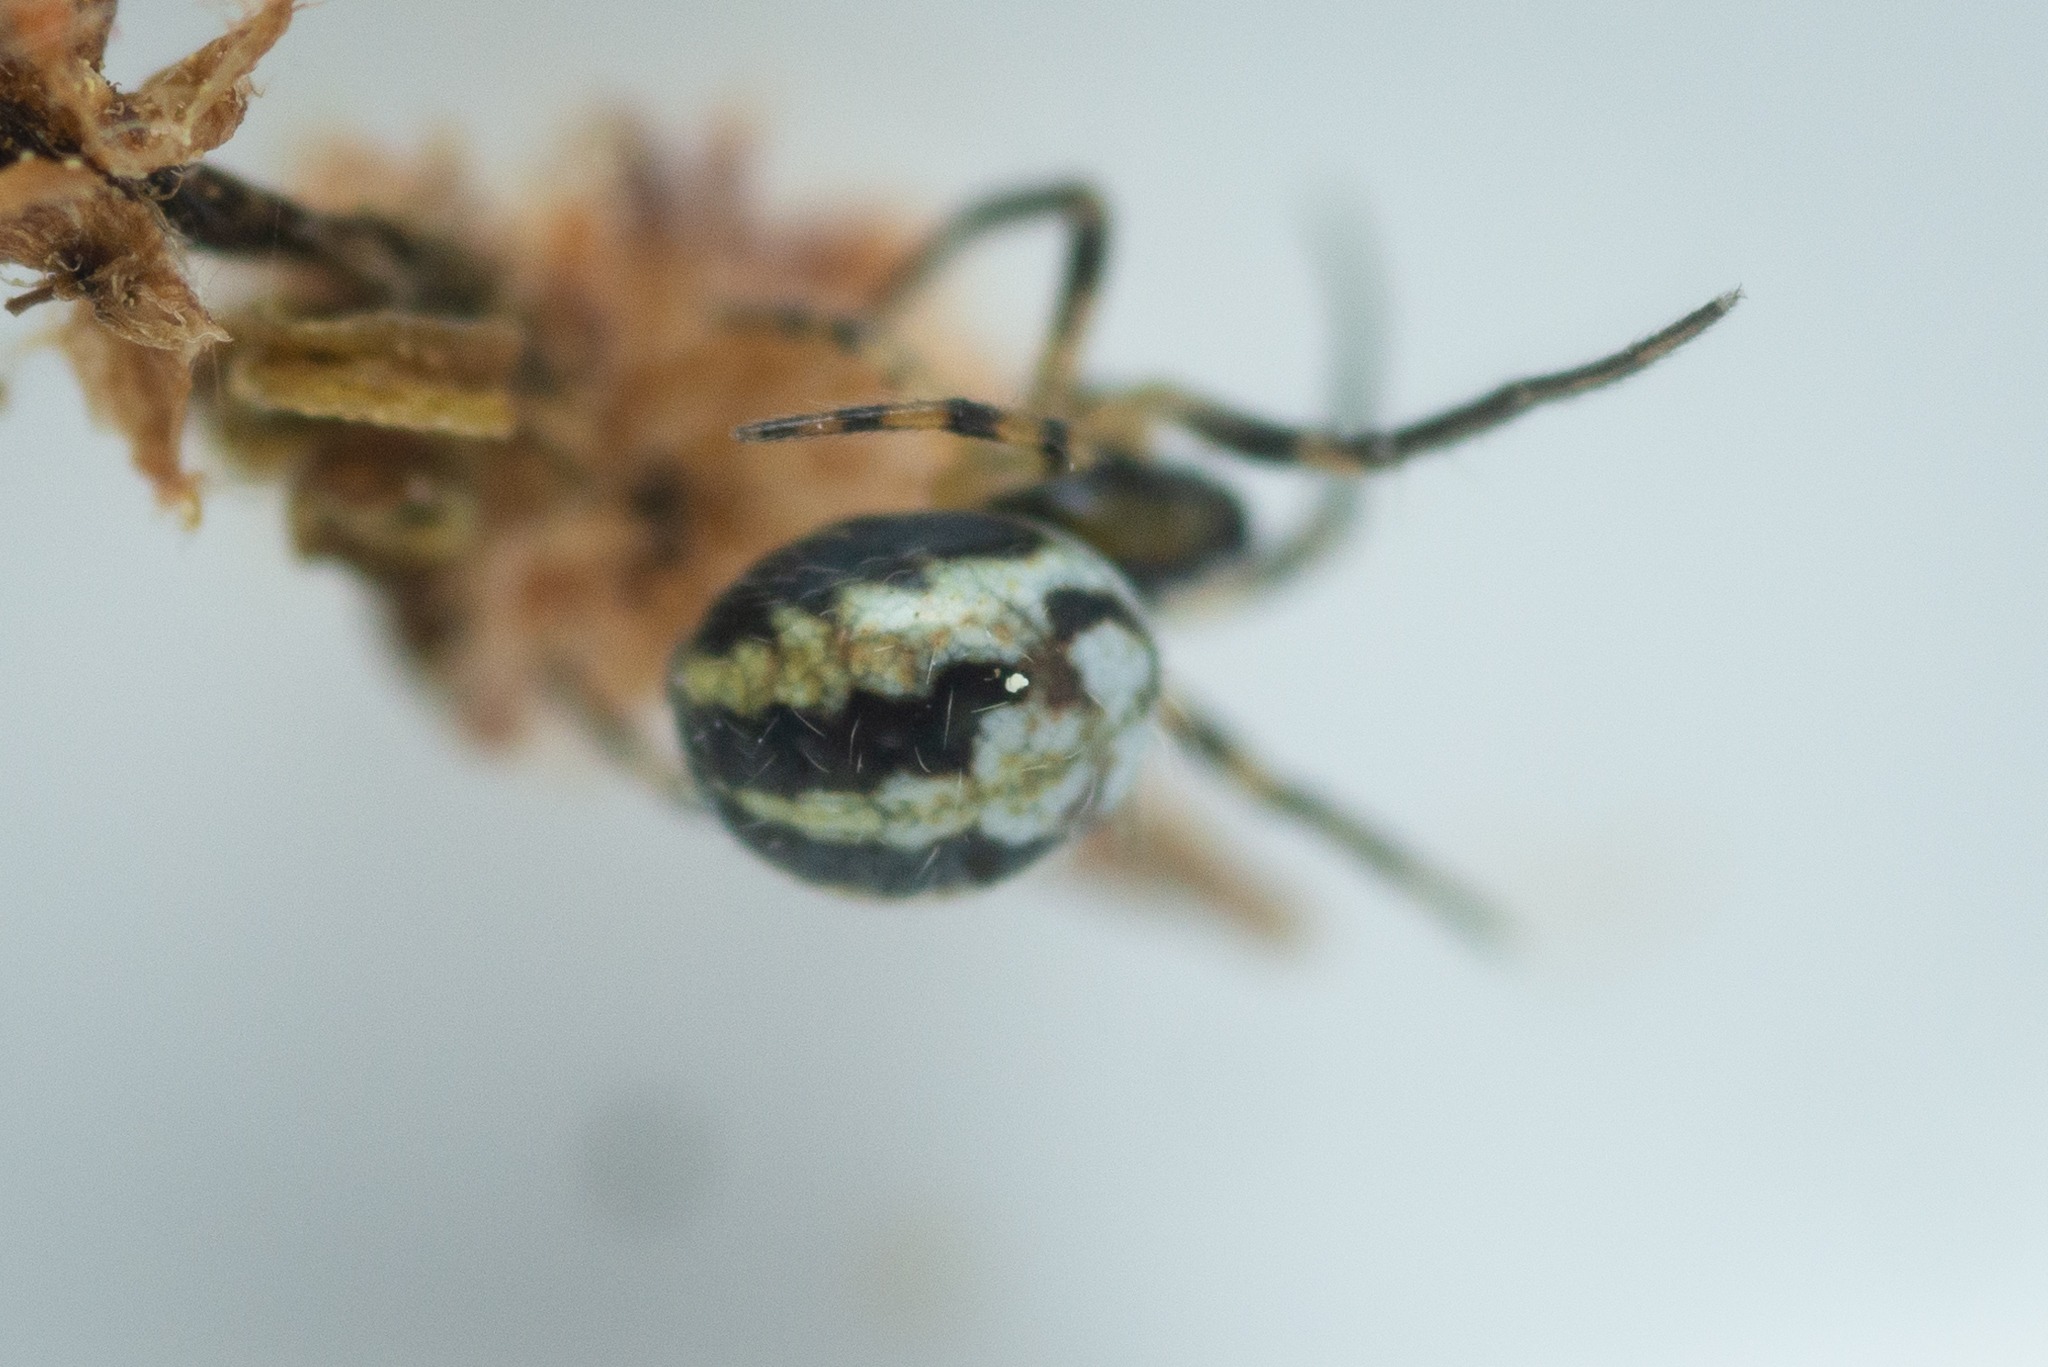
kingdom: Animalia
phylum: Arthropoda
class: Arachnida
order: Araneae
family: Araneidae
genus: Neoscona
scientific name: Neoscona adianta
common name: Klithjulspinder
